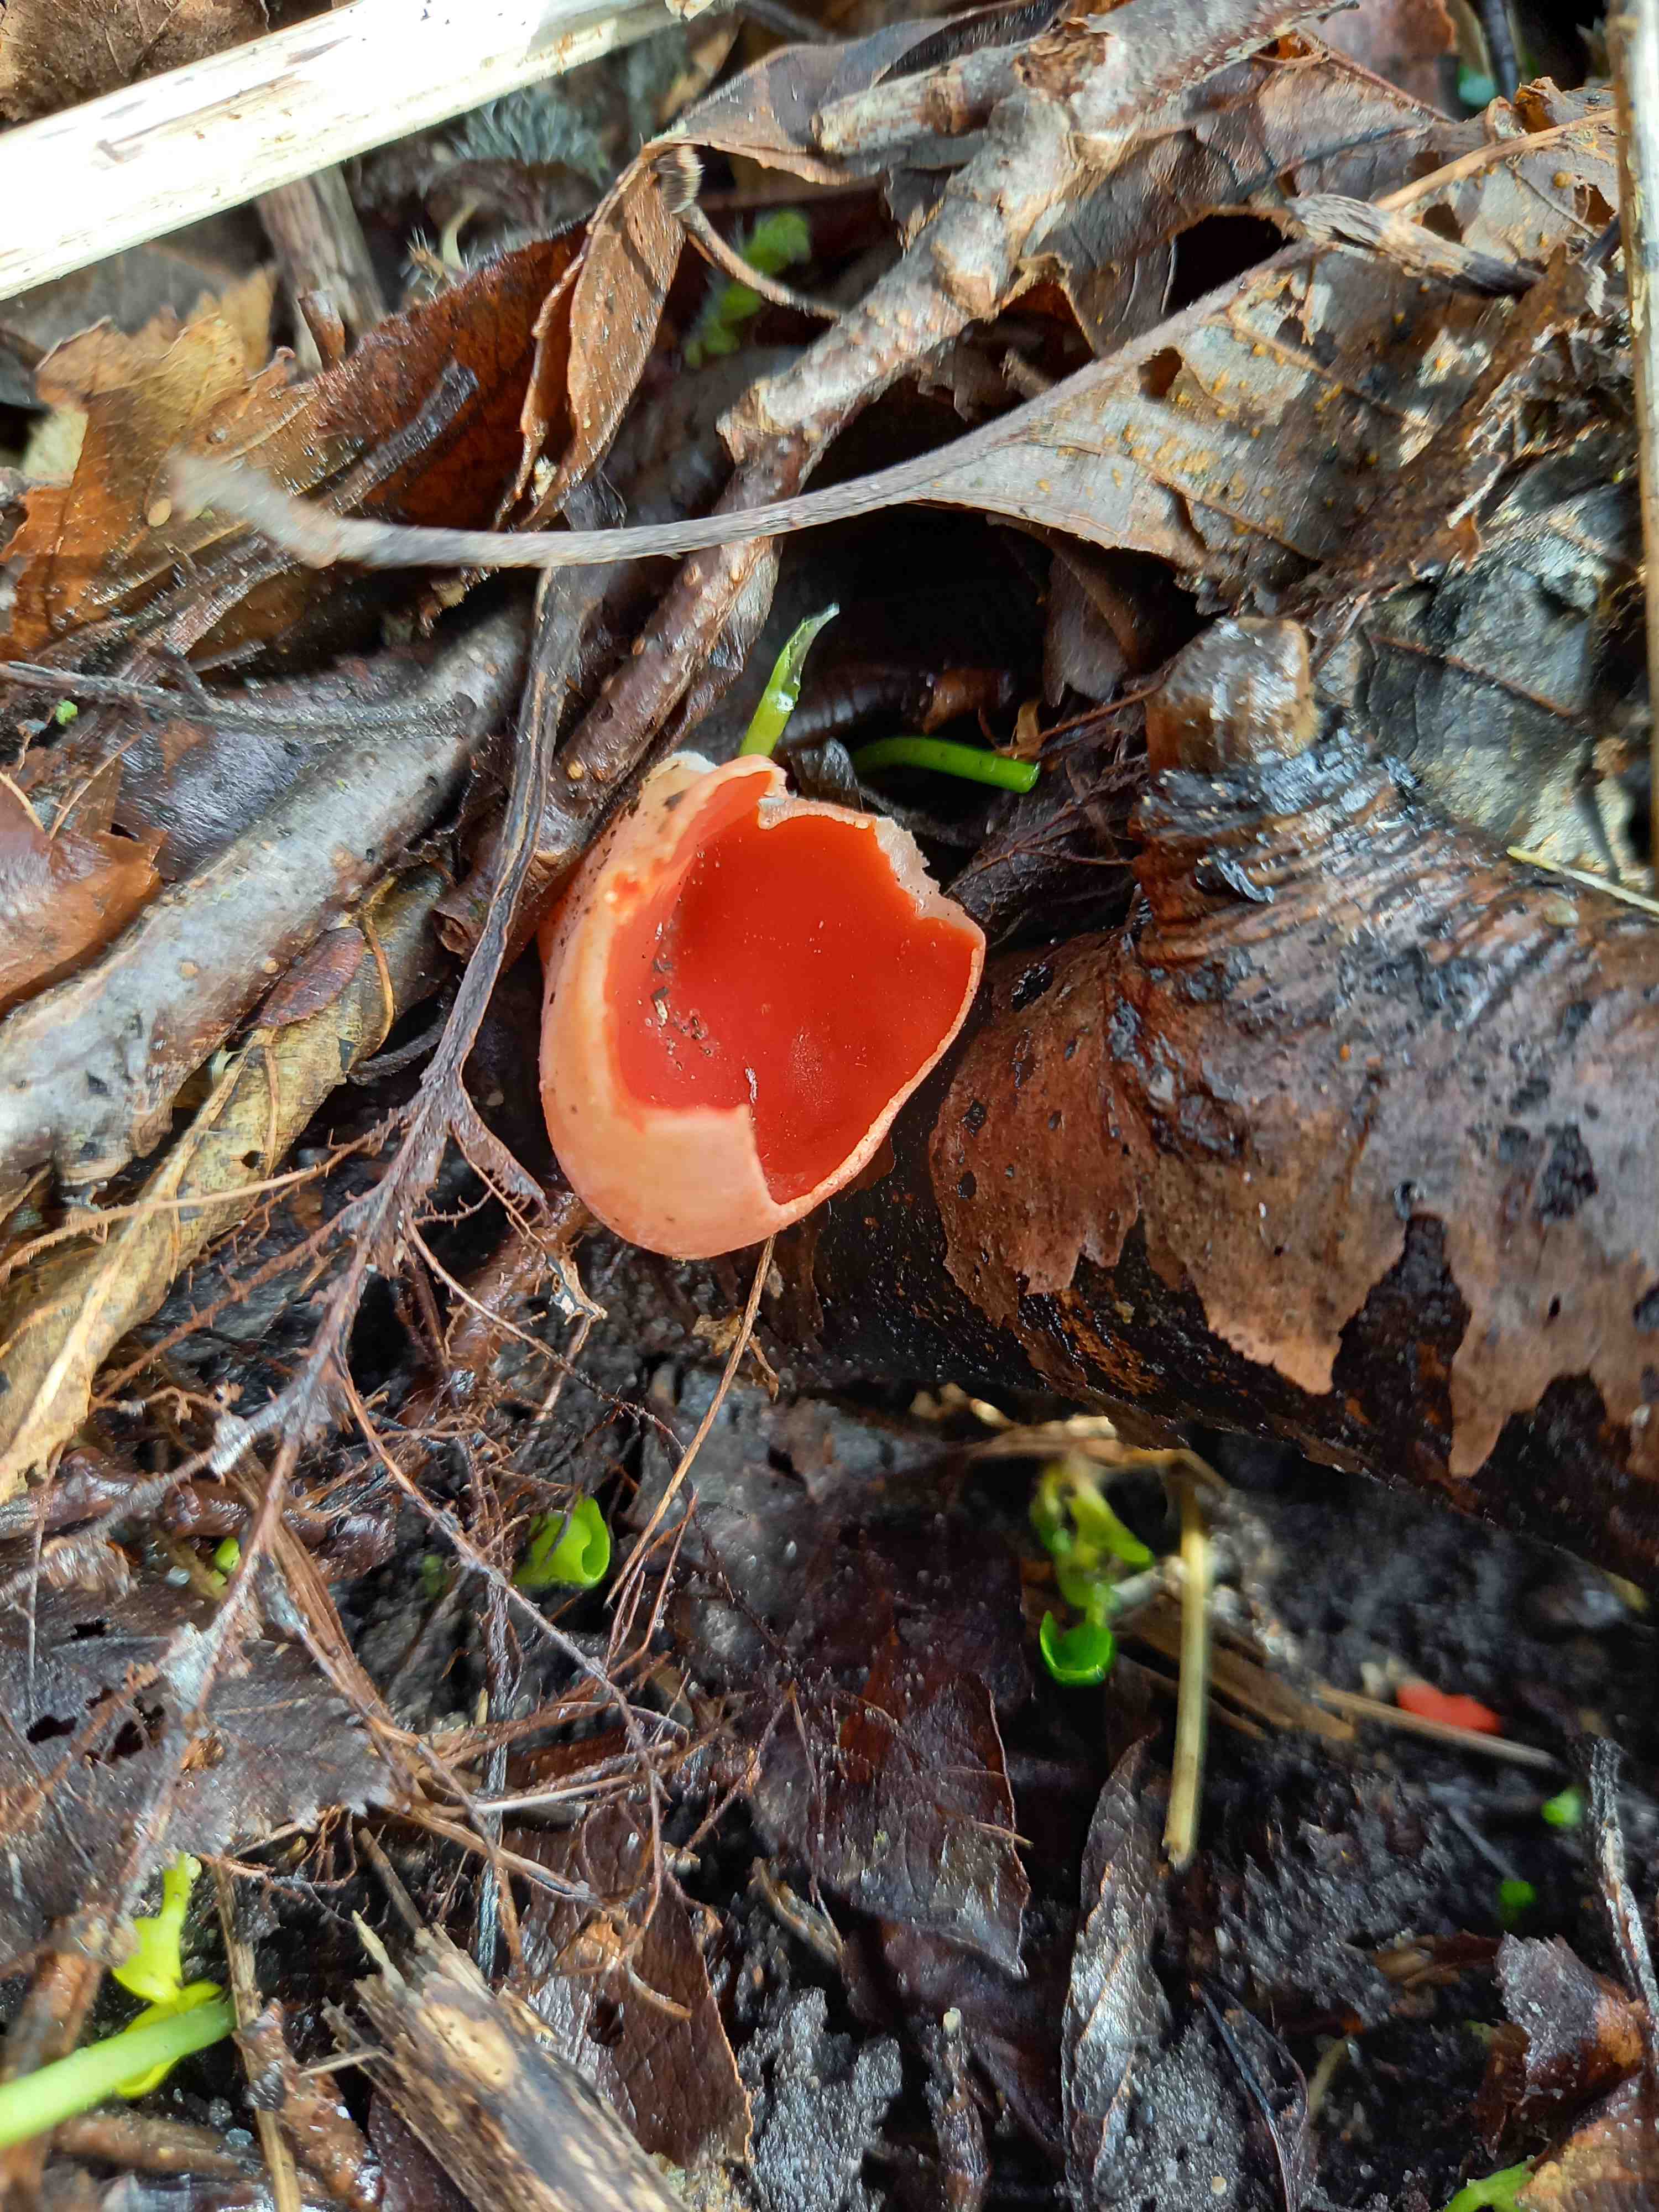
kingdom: Fungi
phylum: Ascomycota
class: Pezizomycetes
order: Pezizales
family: Sarcoscyphaceae
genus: Sarcoscypha
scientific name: Sarcoscypha austriaca
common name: krølhåret pragtbæger
